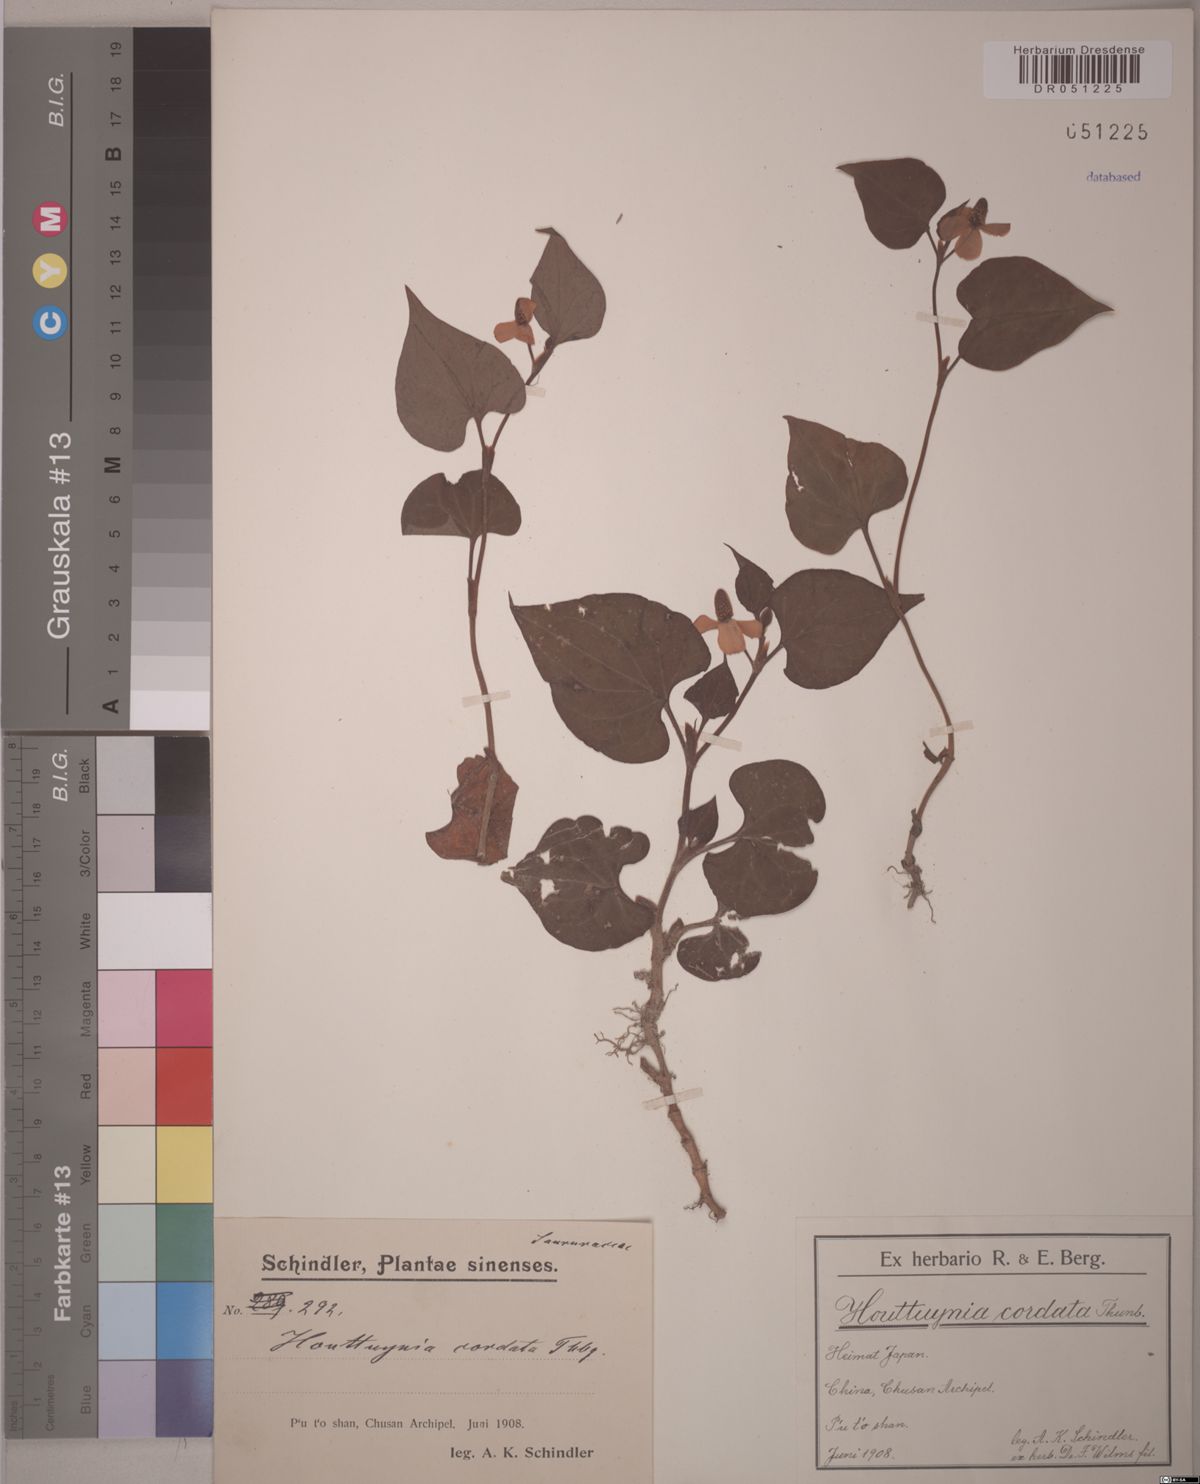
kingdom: Plantae
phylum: Tracheophyta
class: Magnoliopsida
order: Piperales
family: Saururaceae
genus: Houttuynia
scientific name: Houttuynia cordata
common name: Chameleon
